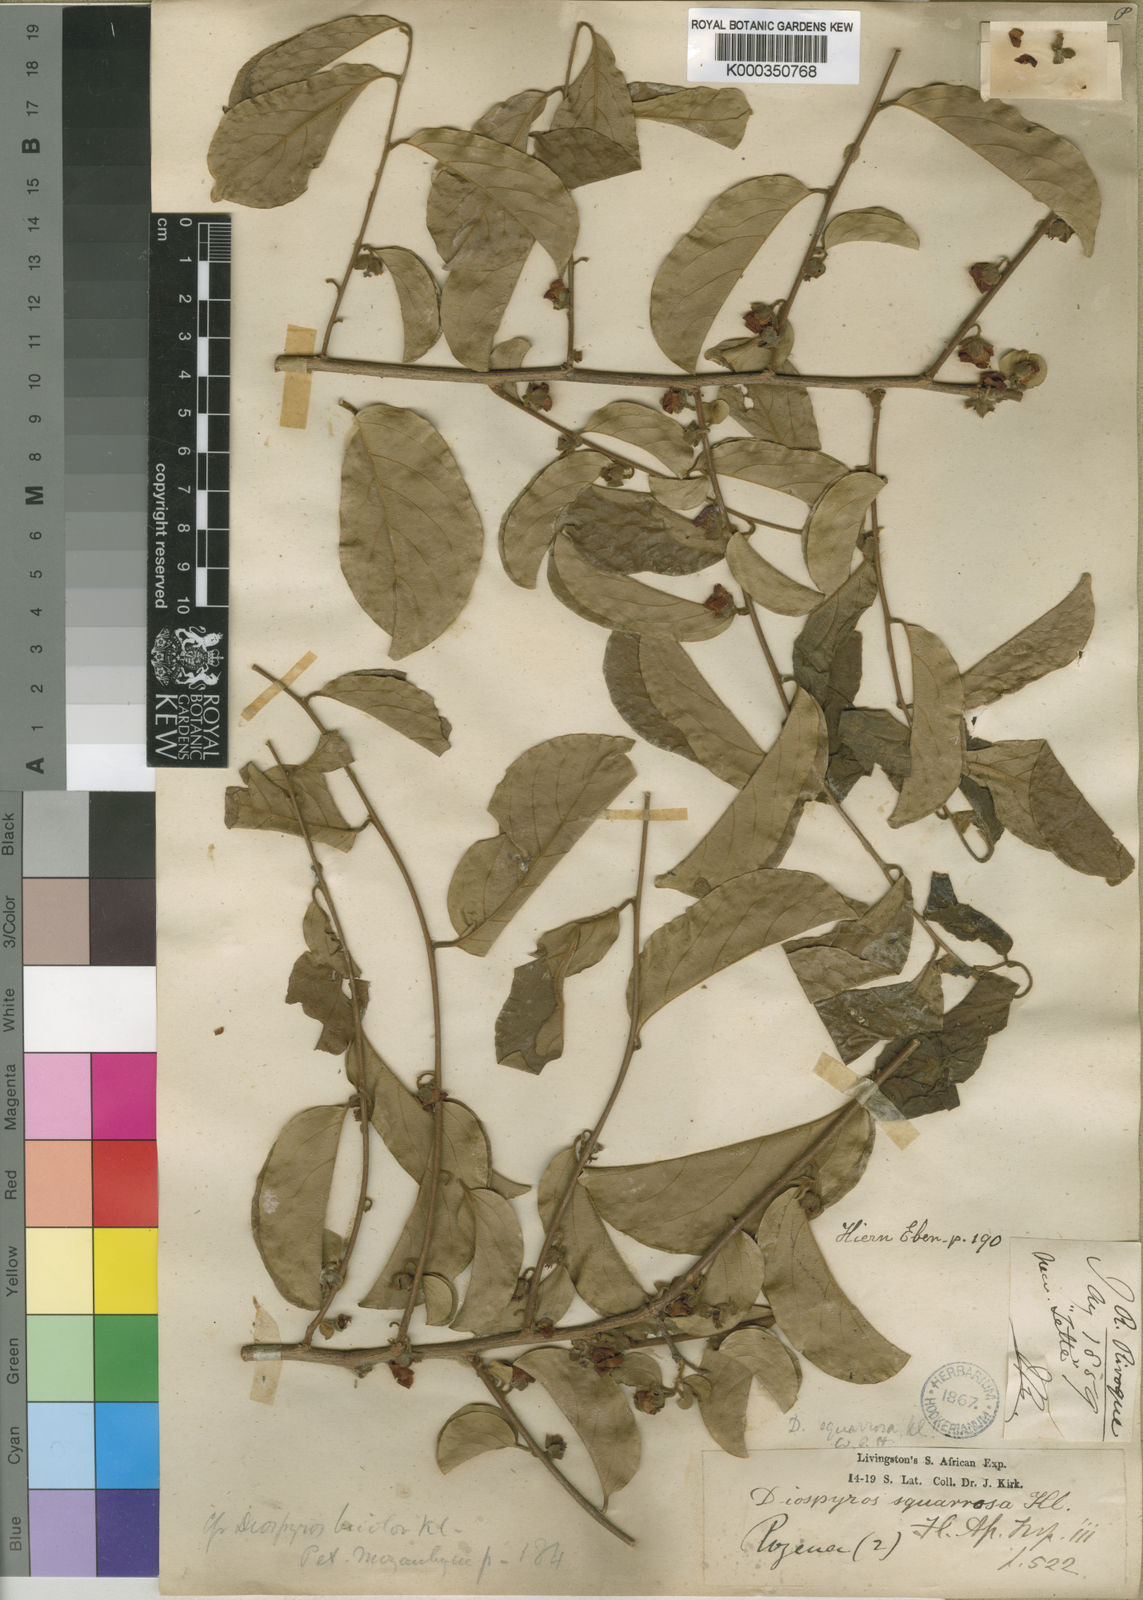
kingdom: Plantae
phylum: Tracheophyta
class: Magnoliopsida
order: Ericales
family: Ebenaceae
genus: Diospyros
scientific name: Diospyros squarrosa
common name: Rigid star berry
